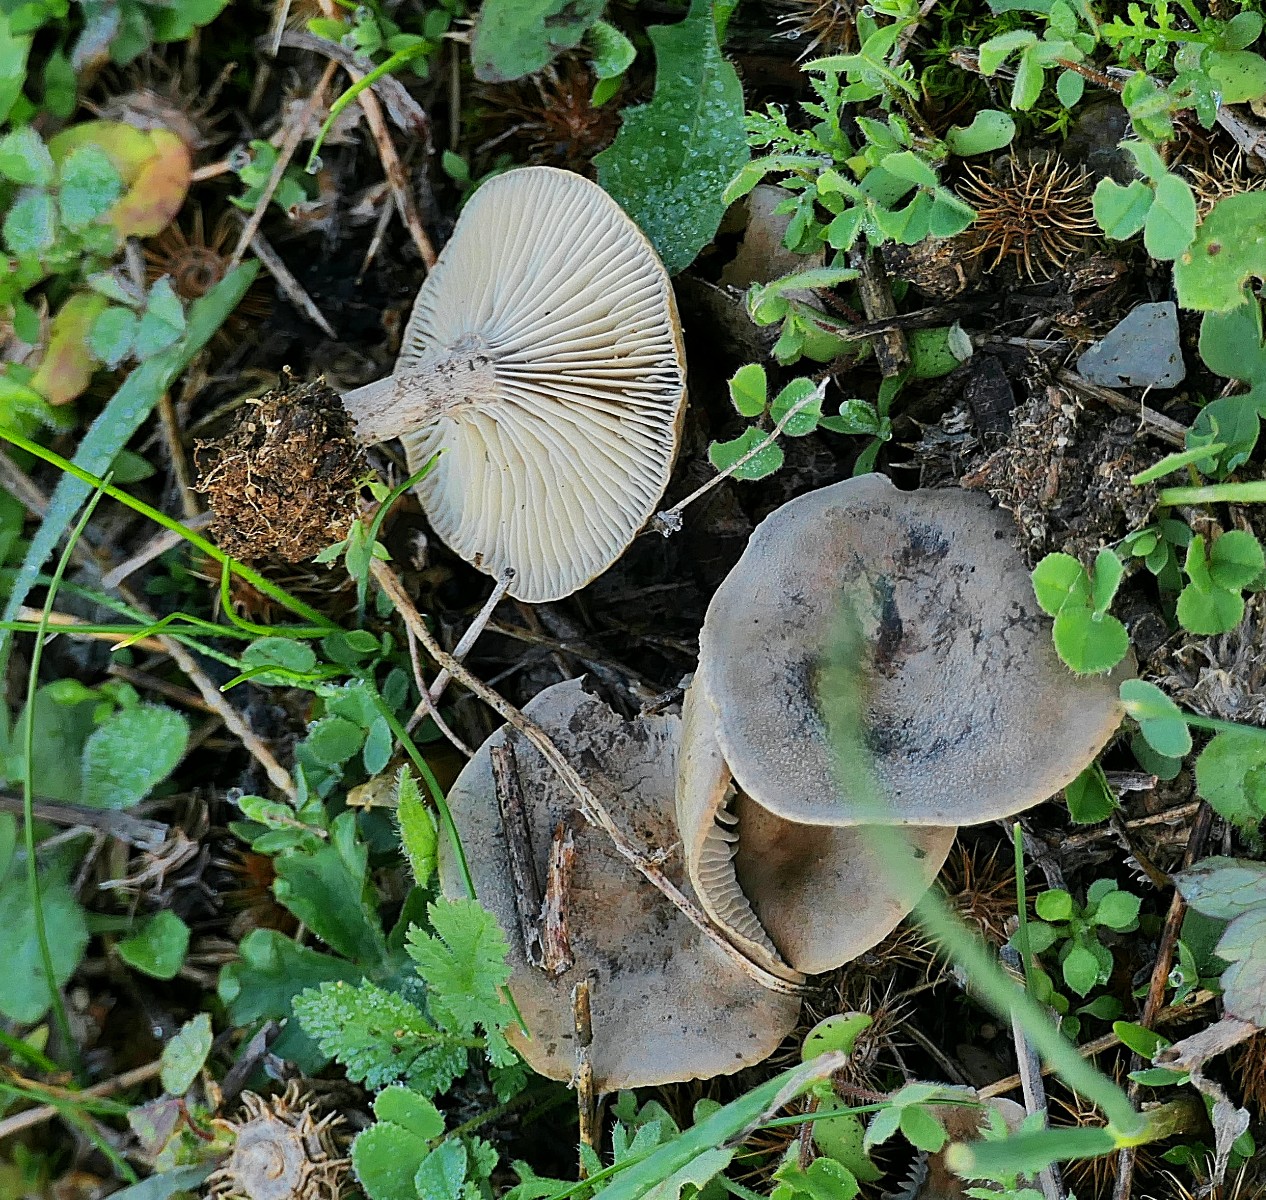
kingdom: Fungi
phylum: Basidiomycota
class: Agaricomycetes
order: Agaricales
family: Tricholomataceae
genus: Clitocybe
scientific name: Clitocybe
